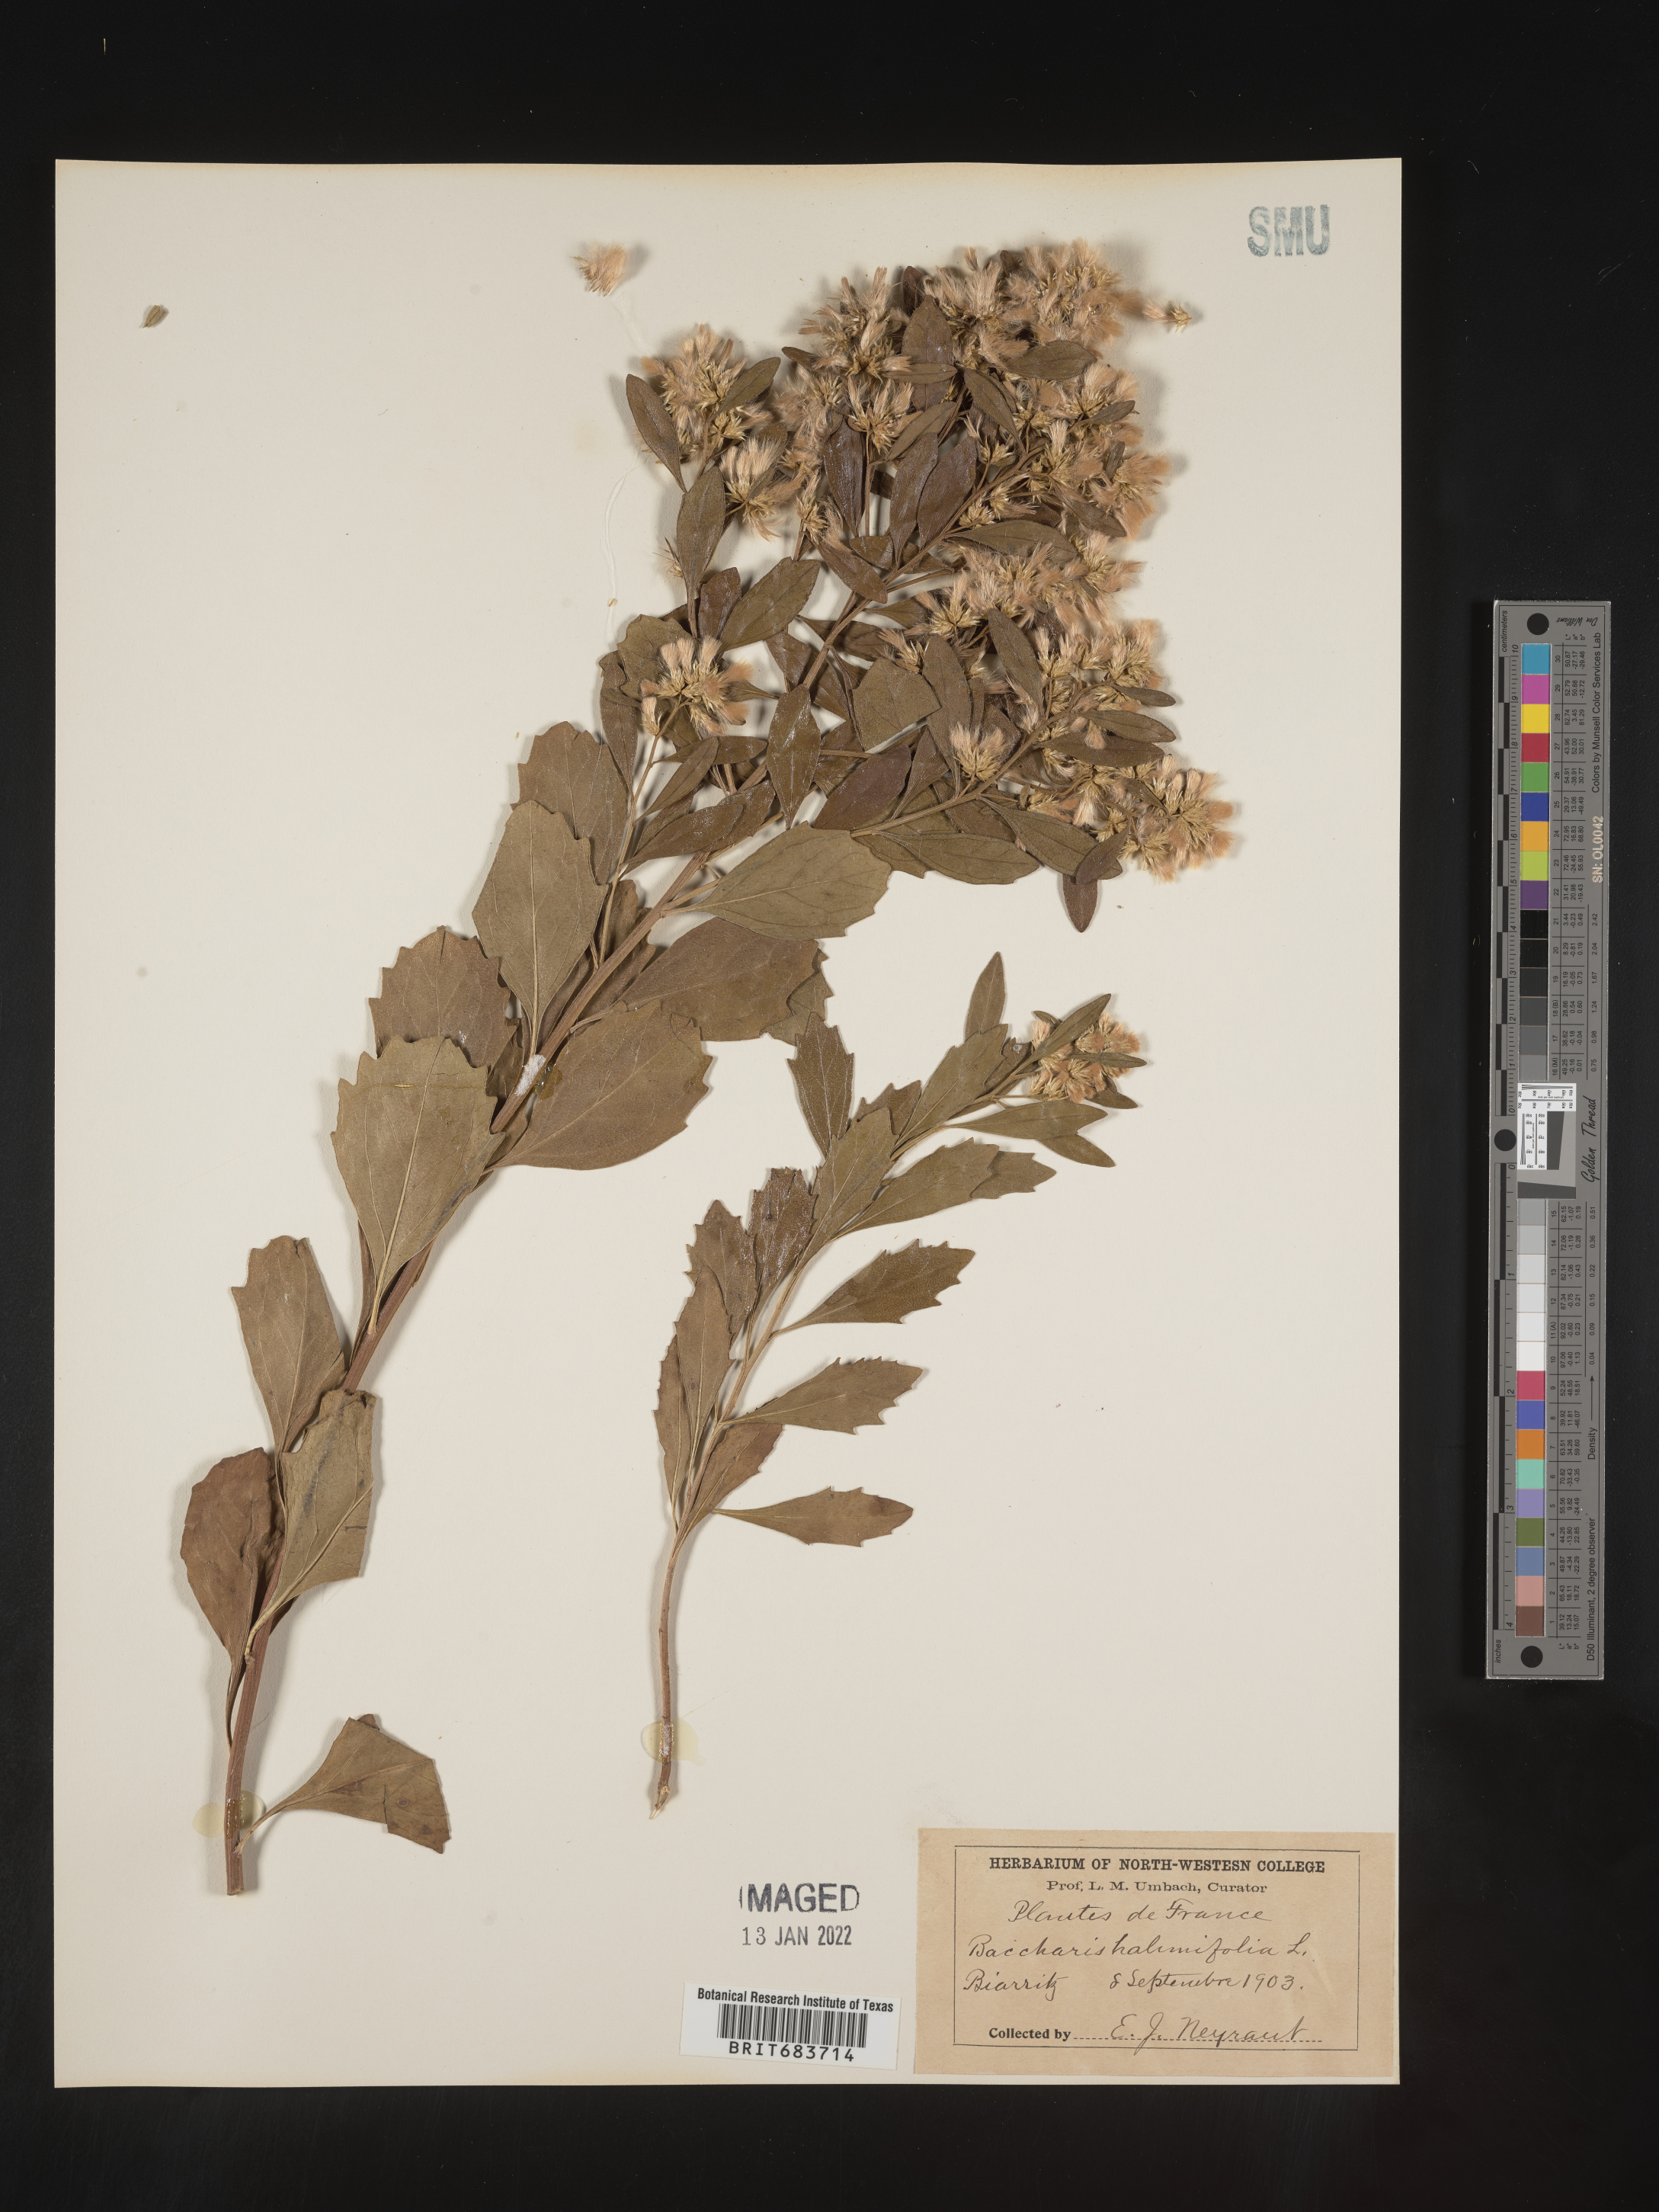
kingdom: Plantae
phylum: Tracheophyta
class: Magnoliopsida
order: Asterales
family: Asteraceae
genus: Baccharis
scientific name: Baccharis
